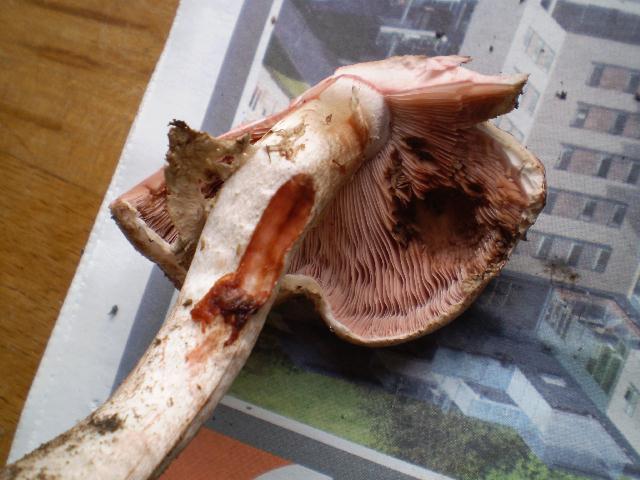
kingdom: Fungi
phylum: Basidiomycota
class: Agaricomycetes
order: Agaricales
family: Agaricaceae
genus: Agaricus
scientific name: Agaricus sylvaticus
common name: lille blod-champignon
